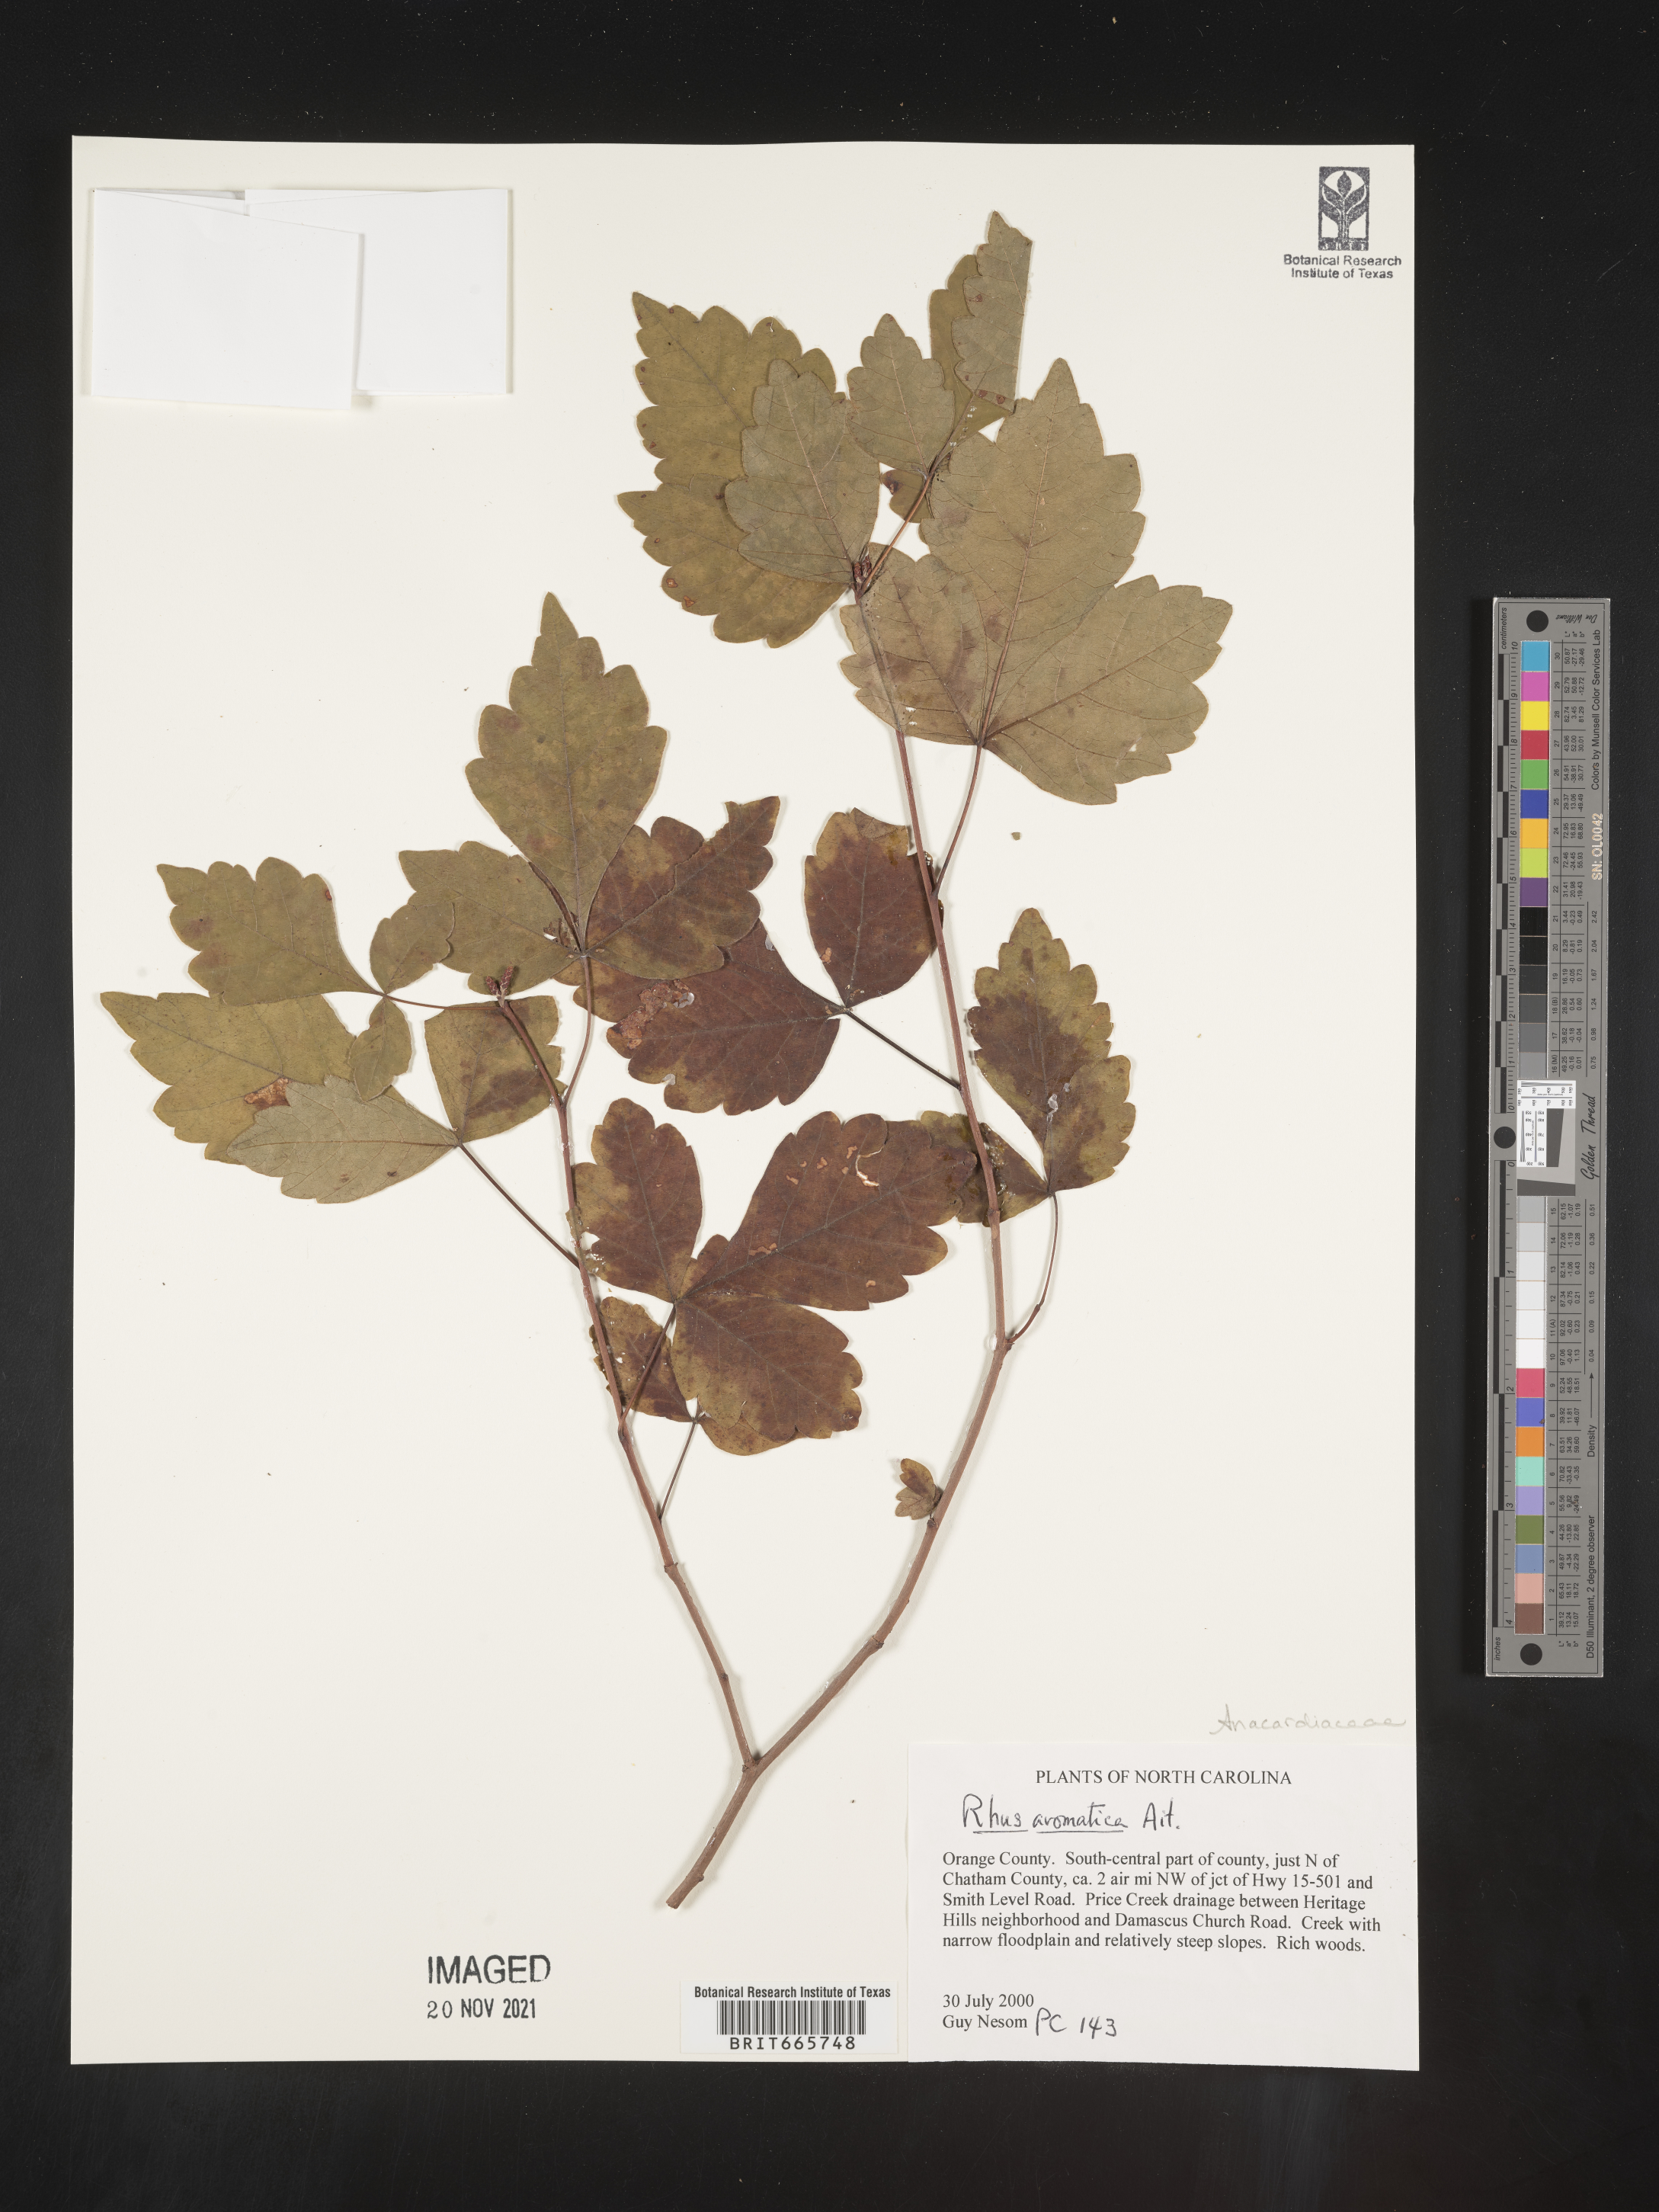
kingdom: Plantae
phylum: Tracheophyta
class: Magnoliopsida
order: Sapindales
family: Anacardiaceae
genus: Rhus
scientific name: Rhus aromatica
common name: Aromatic sumac
